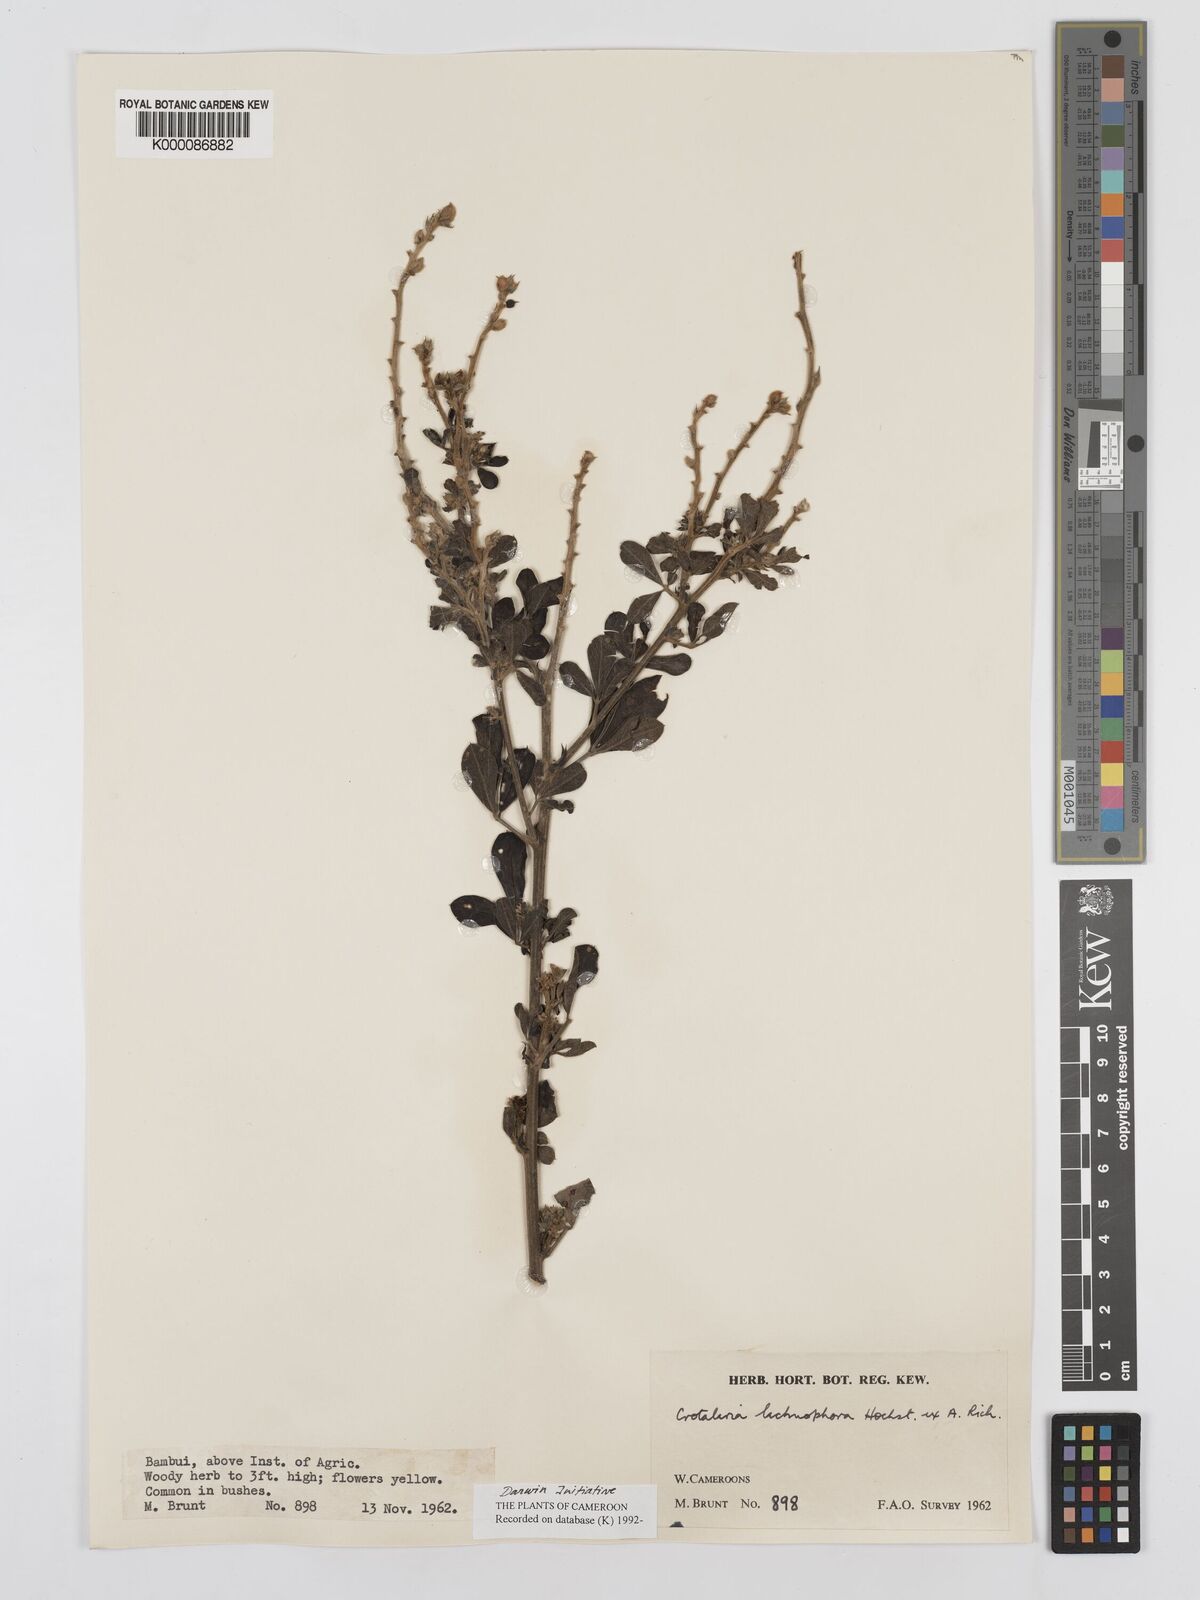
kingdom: Plantae
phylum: Tracheophyta
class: Magnoliopsida
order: Fabales
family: Fabaceae
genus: Crotalaria
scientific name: Crotalaria lachnophora
